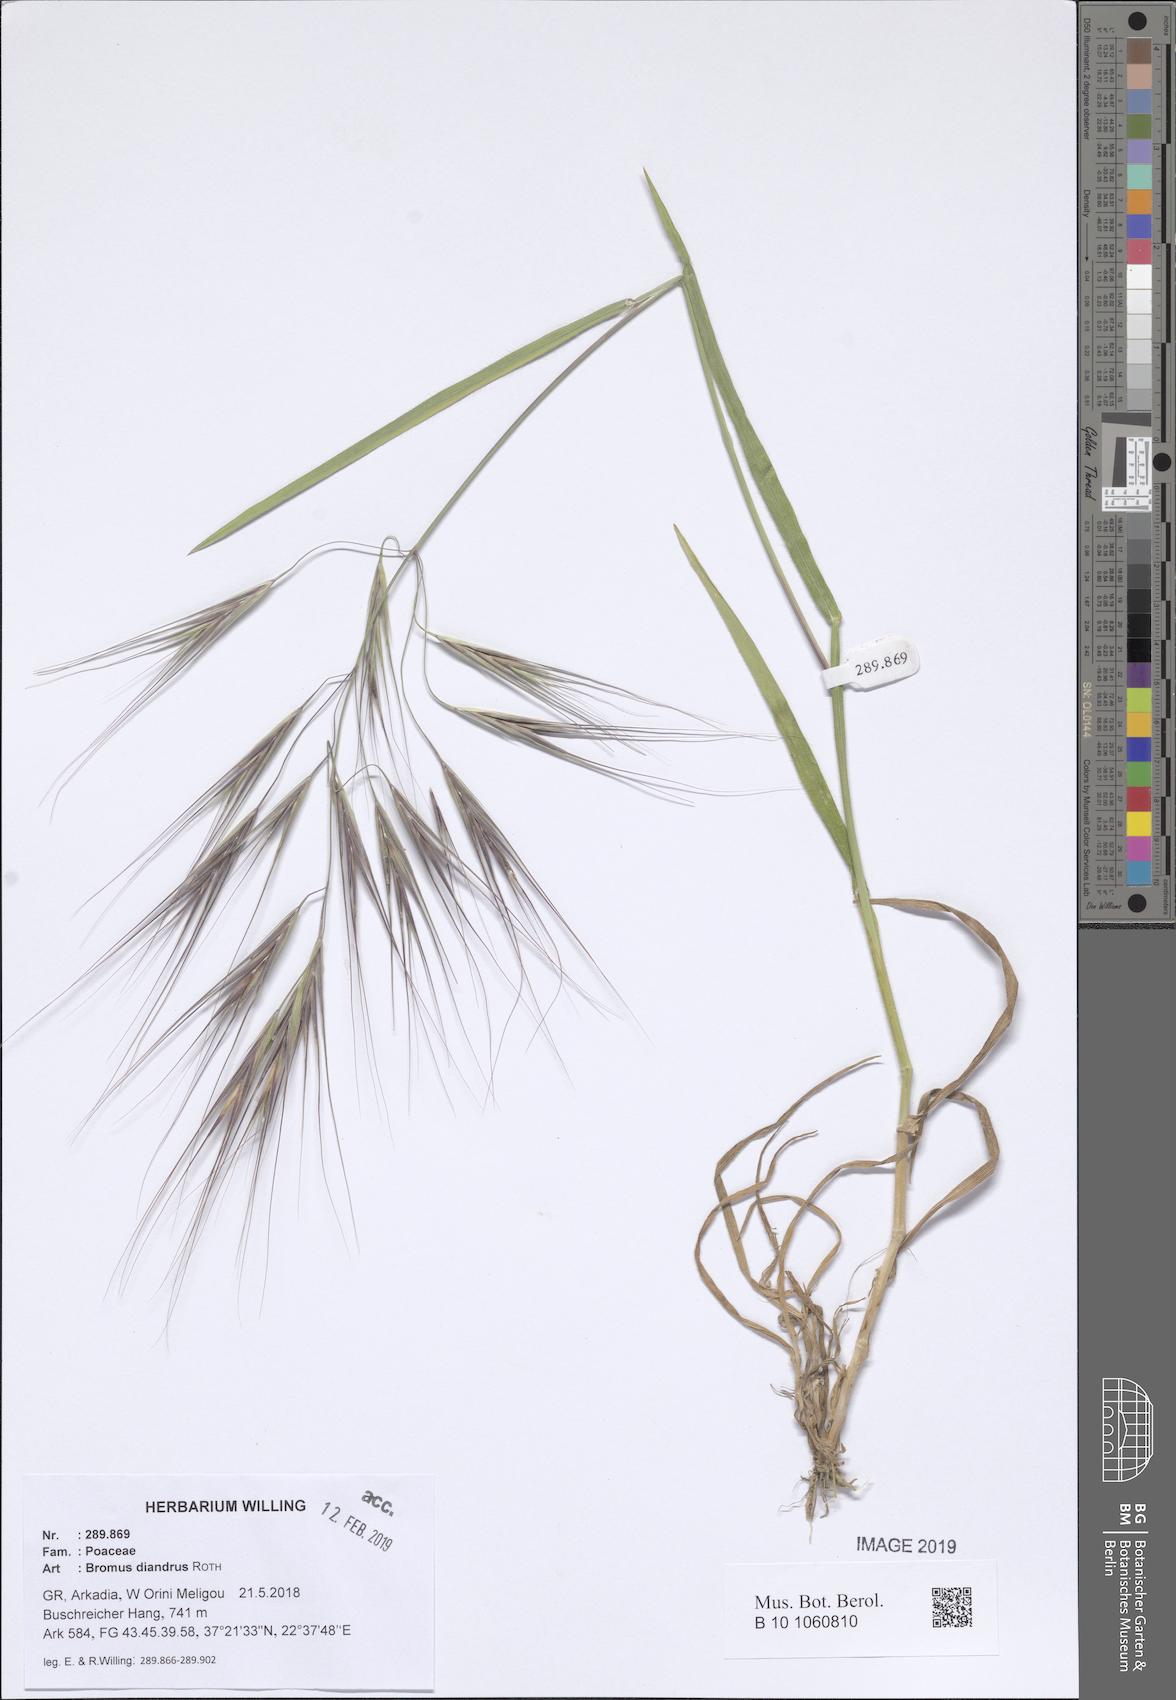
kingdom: Plantae
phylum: Tracheophyta
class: Liliopsida
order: Poales
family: Poaceae
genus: Bromus
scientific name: Bromus diandrus
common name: Ripgut brome
